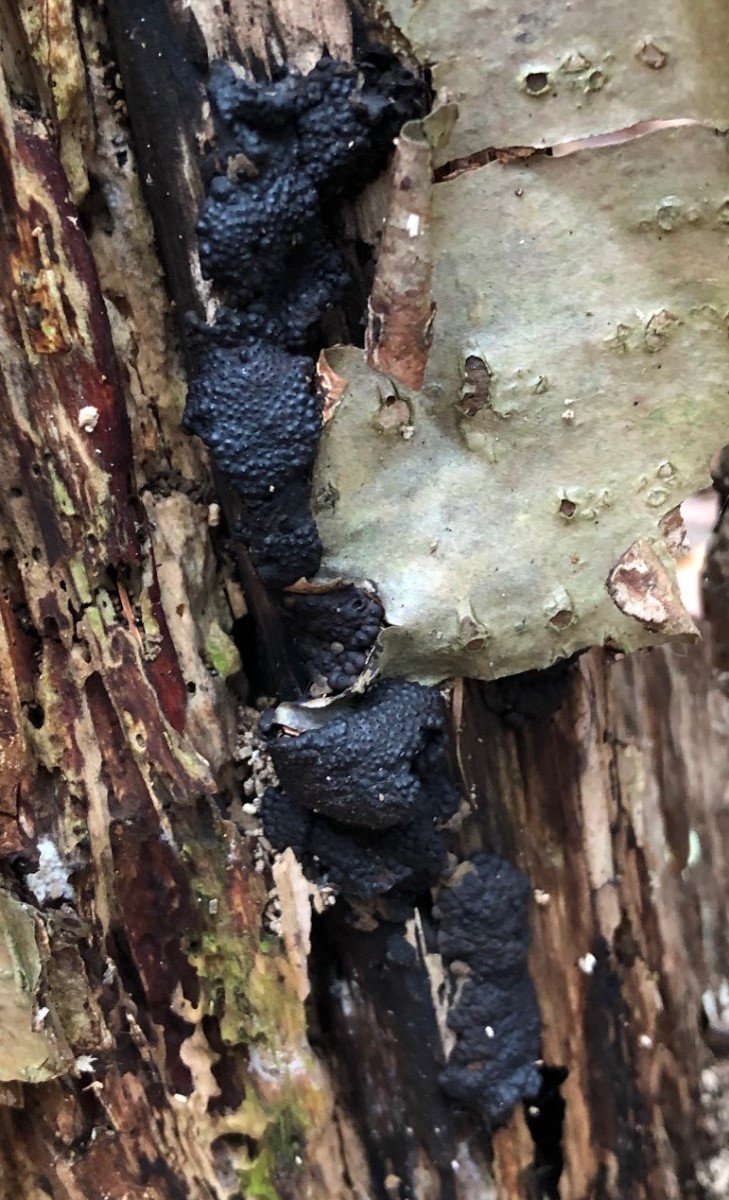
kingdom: Fungi
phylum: Ascomycota
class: Sordariomycetes
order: Xylariales
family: Hypoxylaceae
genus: Jackrogersella
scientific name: Jackrogersella multiformis
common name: foranderlig kulbær
